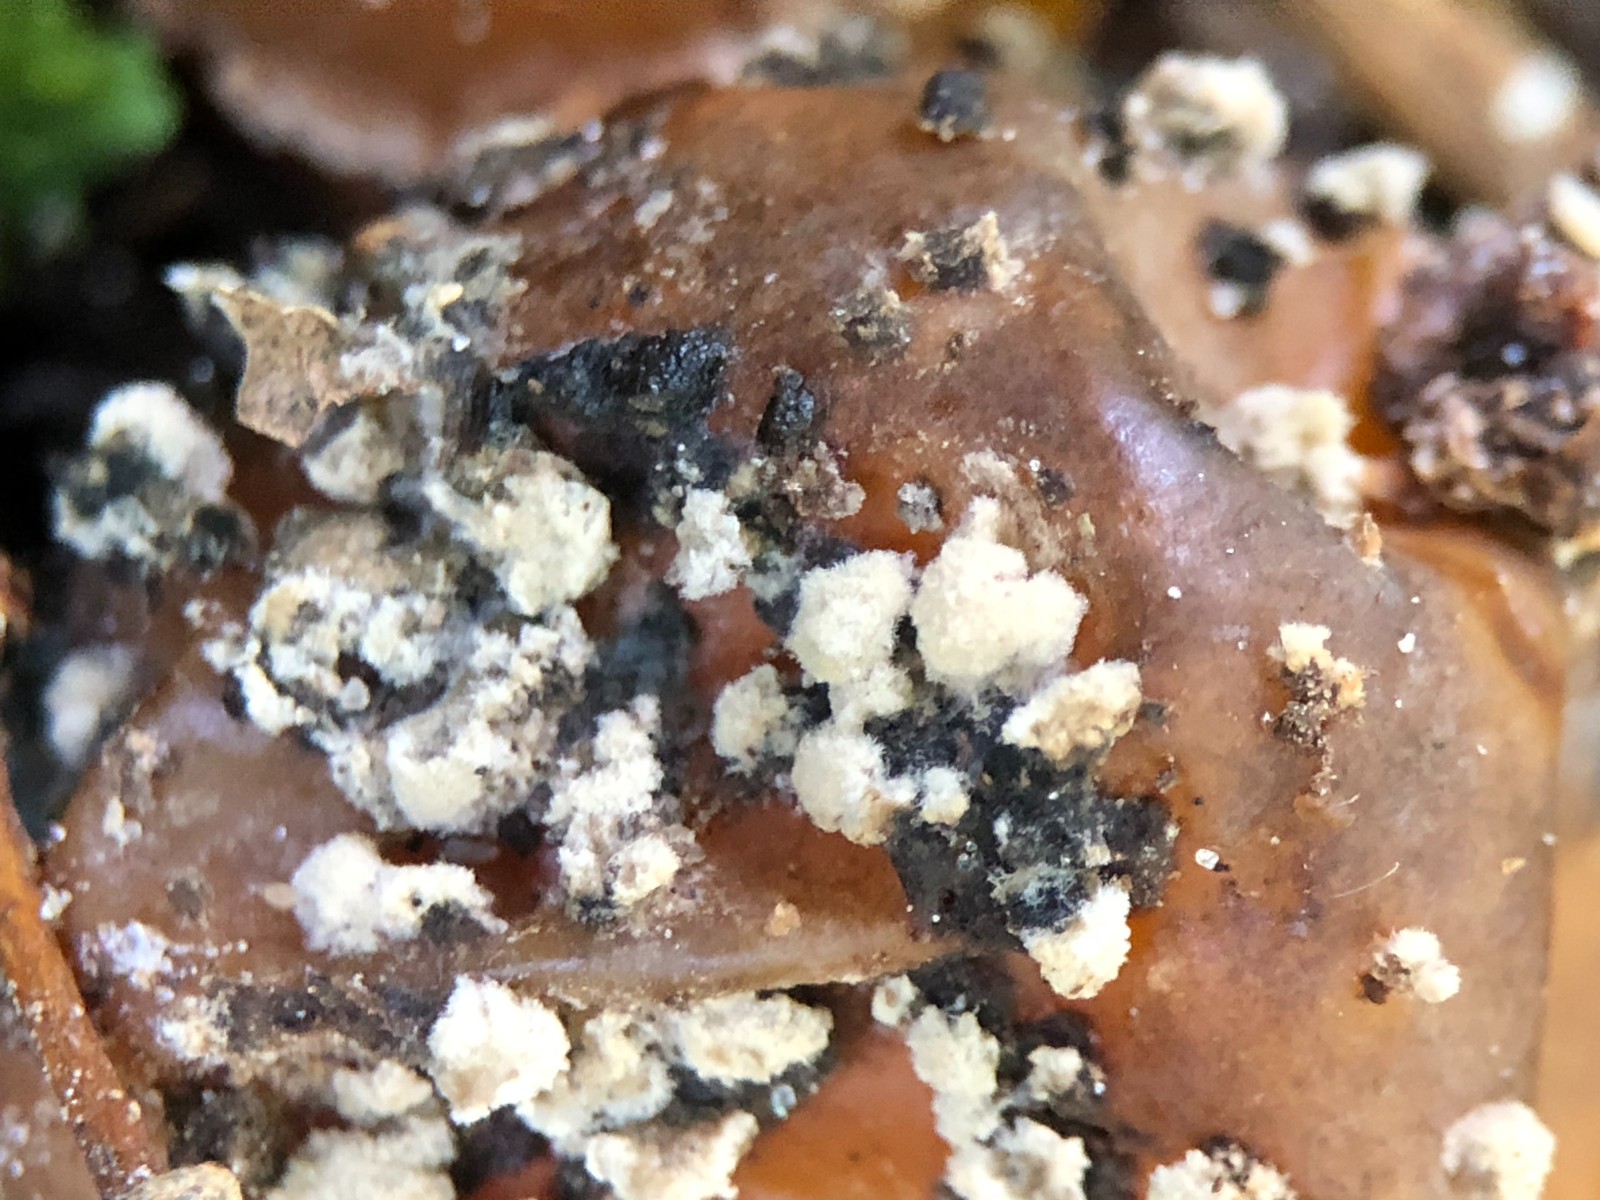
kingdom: Fungi
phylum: Ascomycota
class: Leotiomycetes
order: Helotiales
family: Sclerotiniaceae
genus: Monilinia
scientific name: Monilinia laxa
